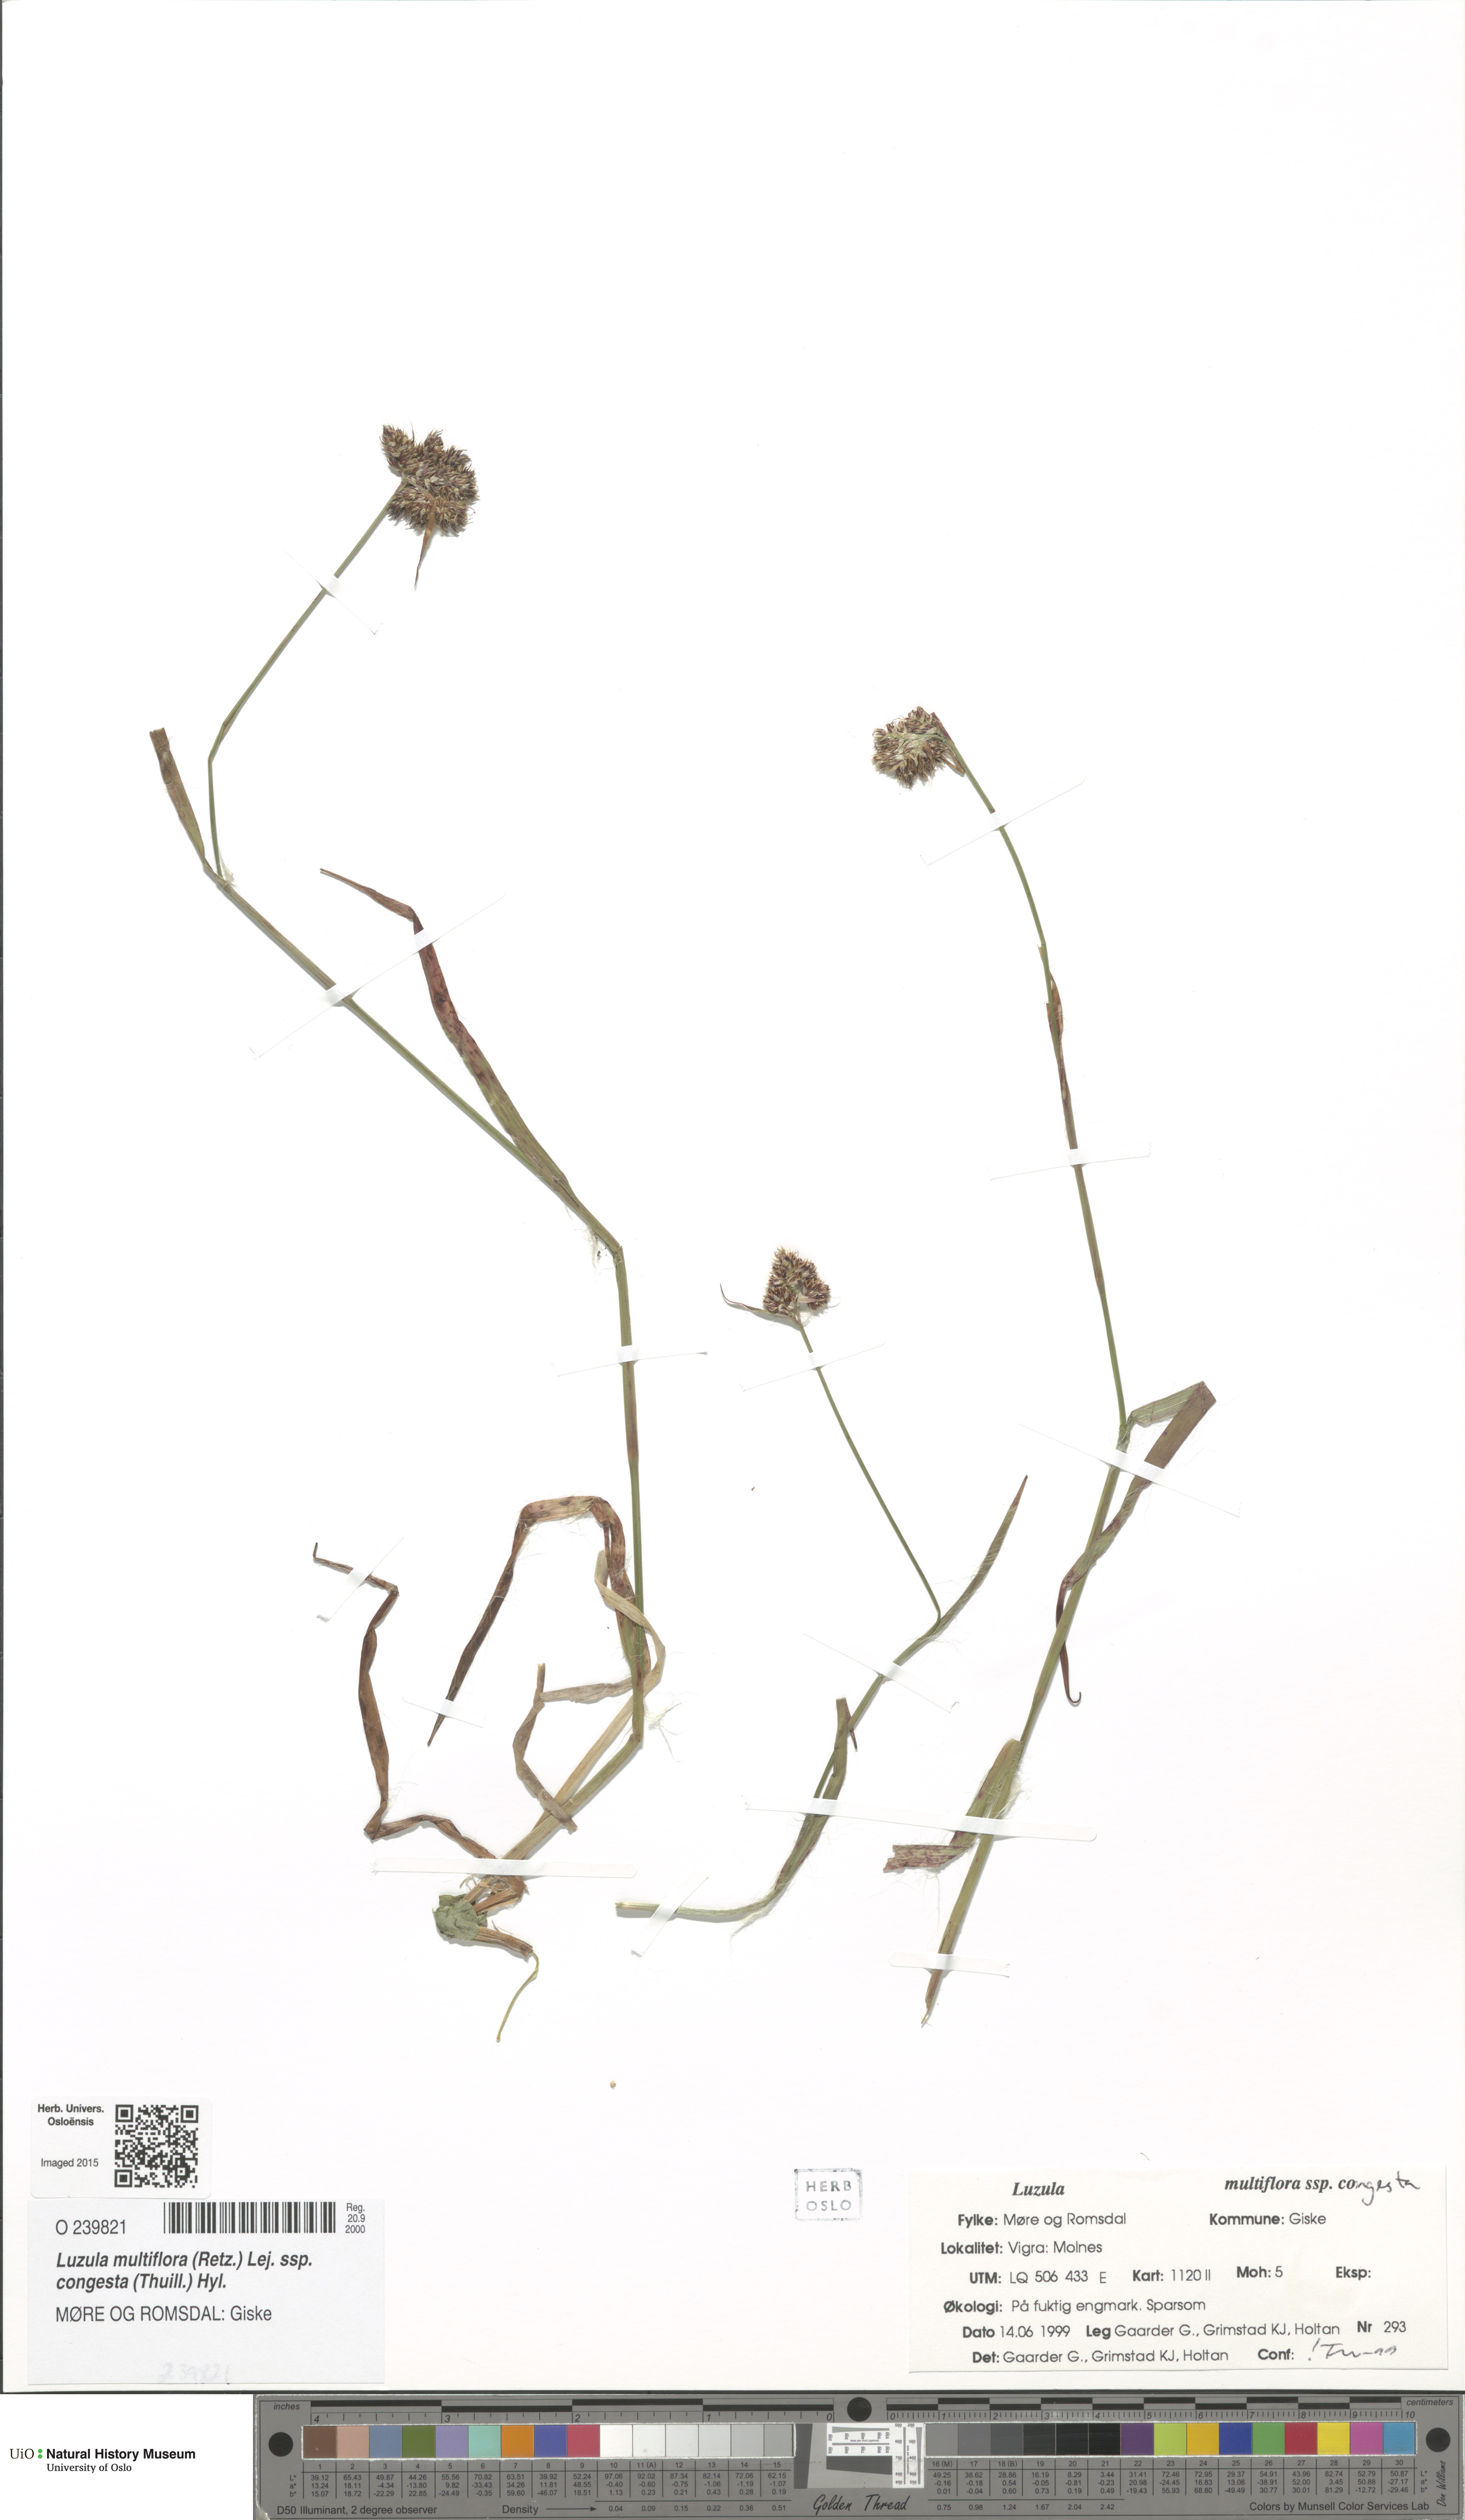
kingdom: Plantae
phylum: Tracheophyta
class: Liliopsida
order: Poales
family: Juncaceae
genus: Luzula
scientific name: Luzula congesta
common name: Heath woodrush
